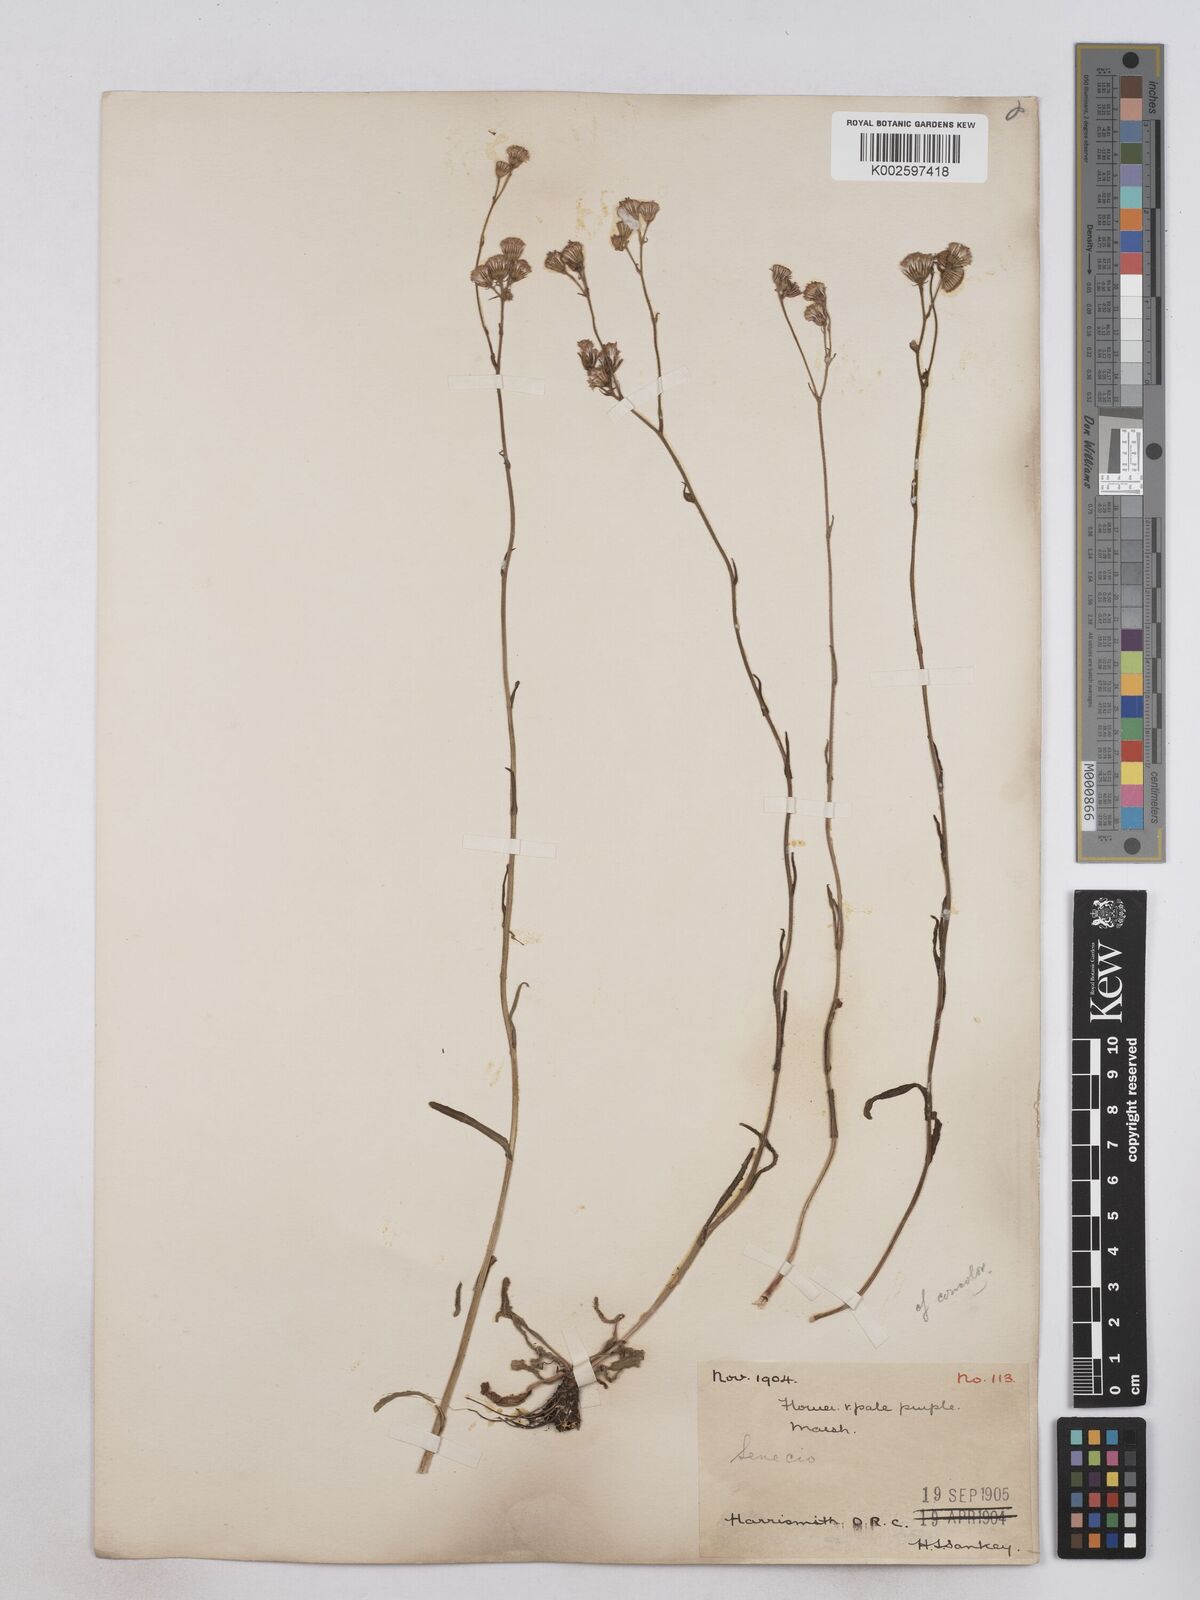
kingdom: Plantae
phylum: Tracheophyta
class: Magnoliopsida
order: Asterales
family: Asteraceae
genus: Senecio
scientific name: Senecio polyodon
